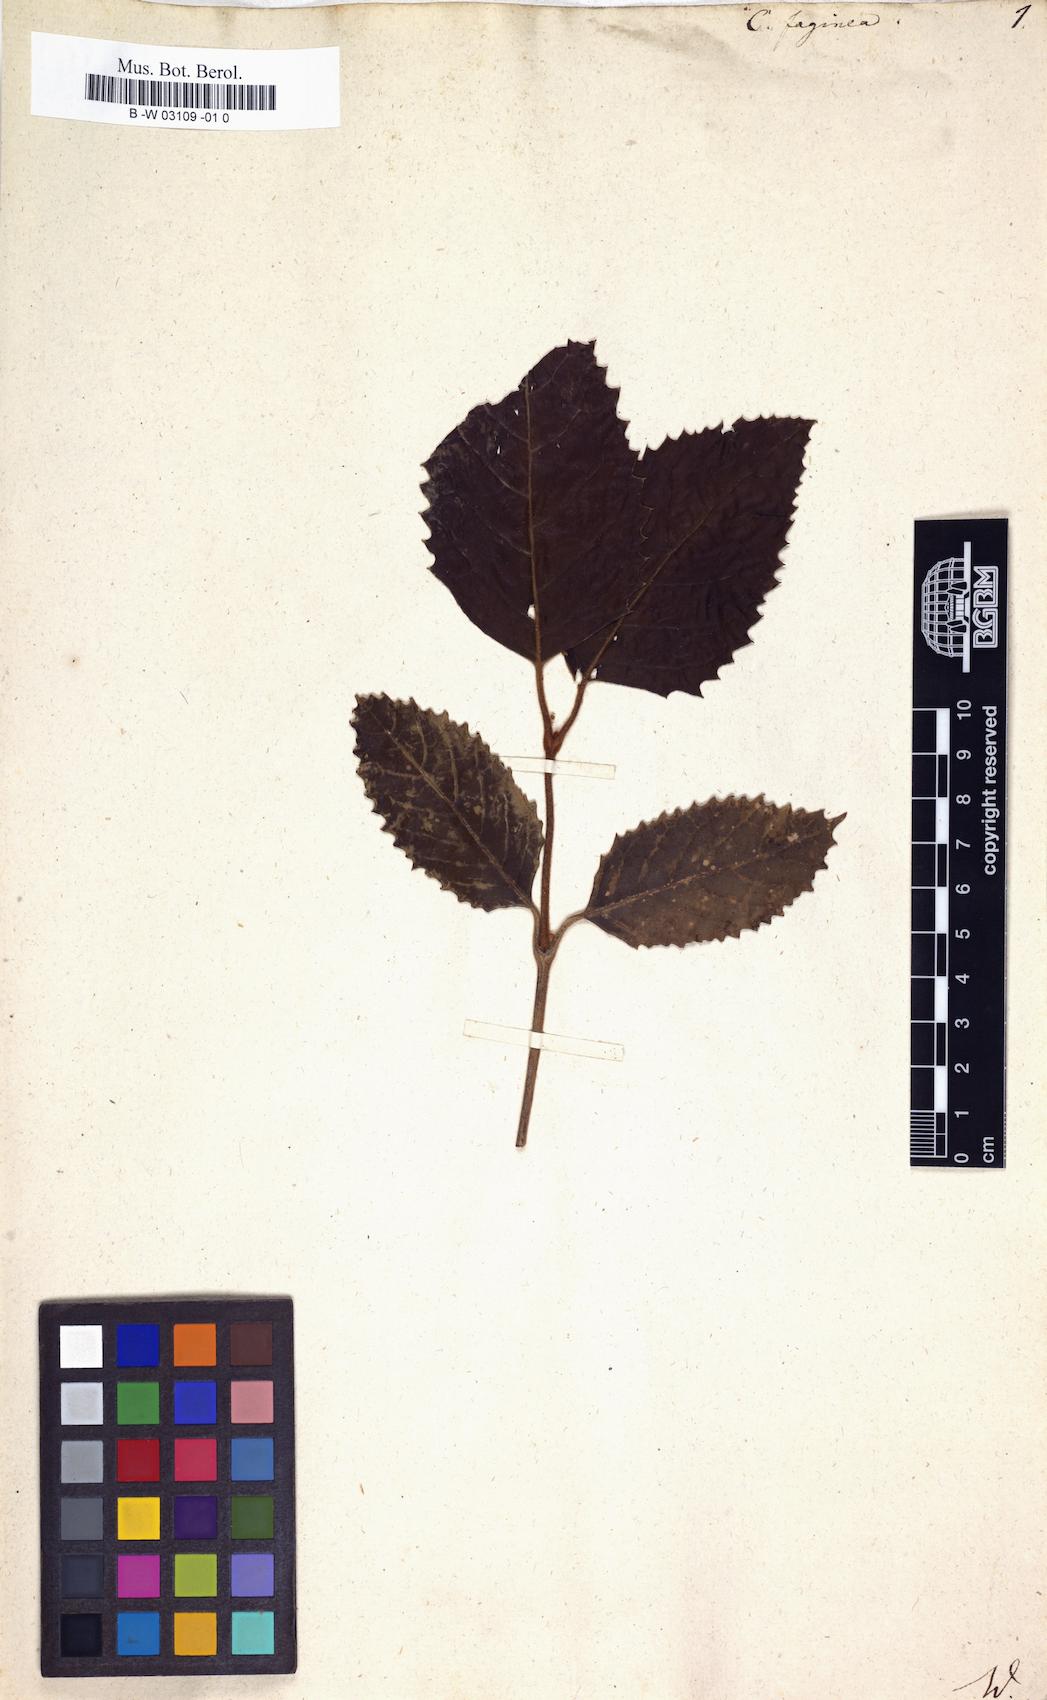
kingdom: Plantae
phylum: Tracheophyta
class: Magnoliopsida
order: Cornales
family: Curtisiaceae
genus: Curtisia
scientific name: Curtisia dentata
